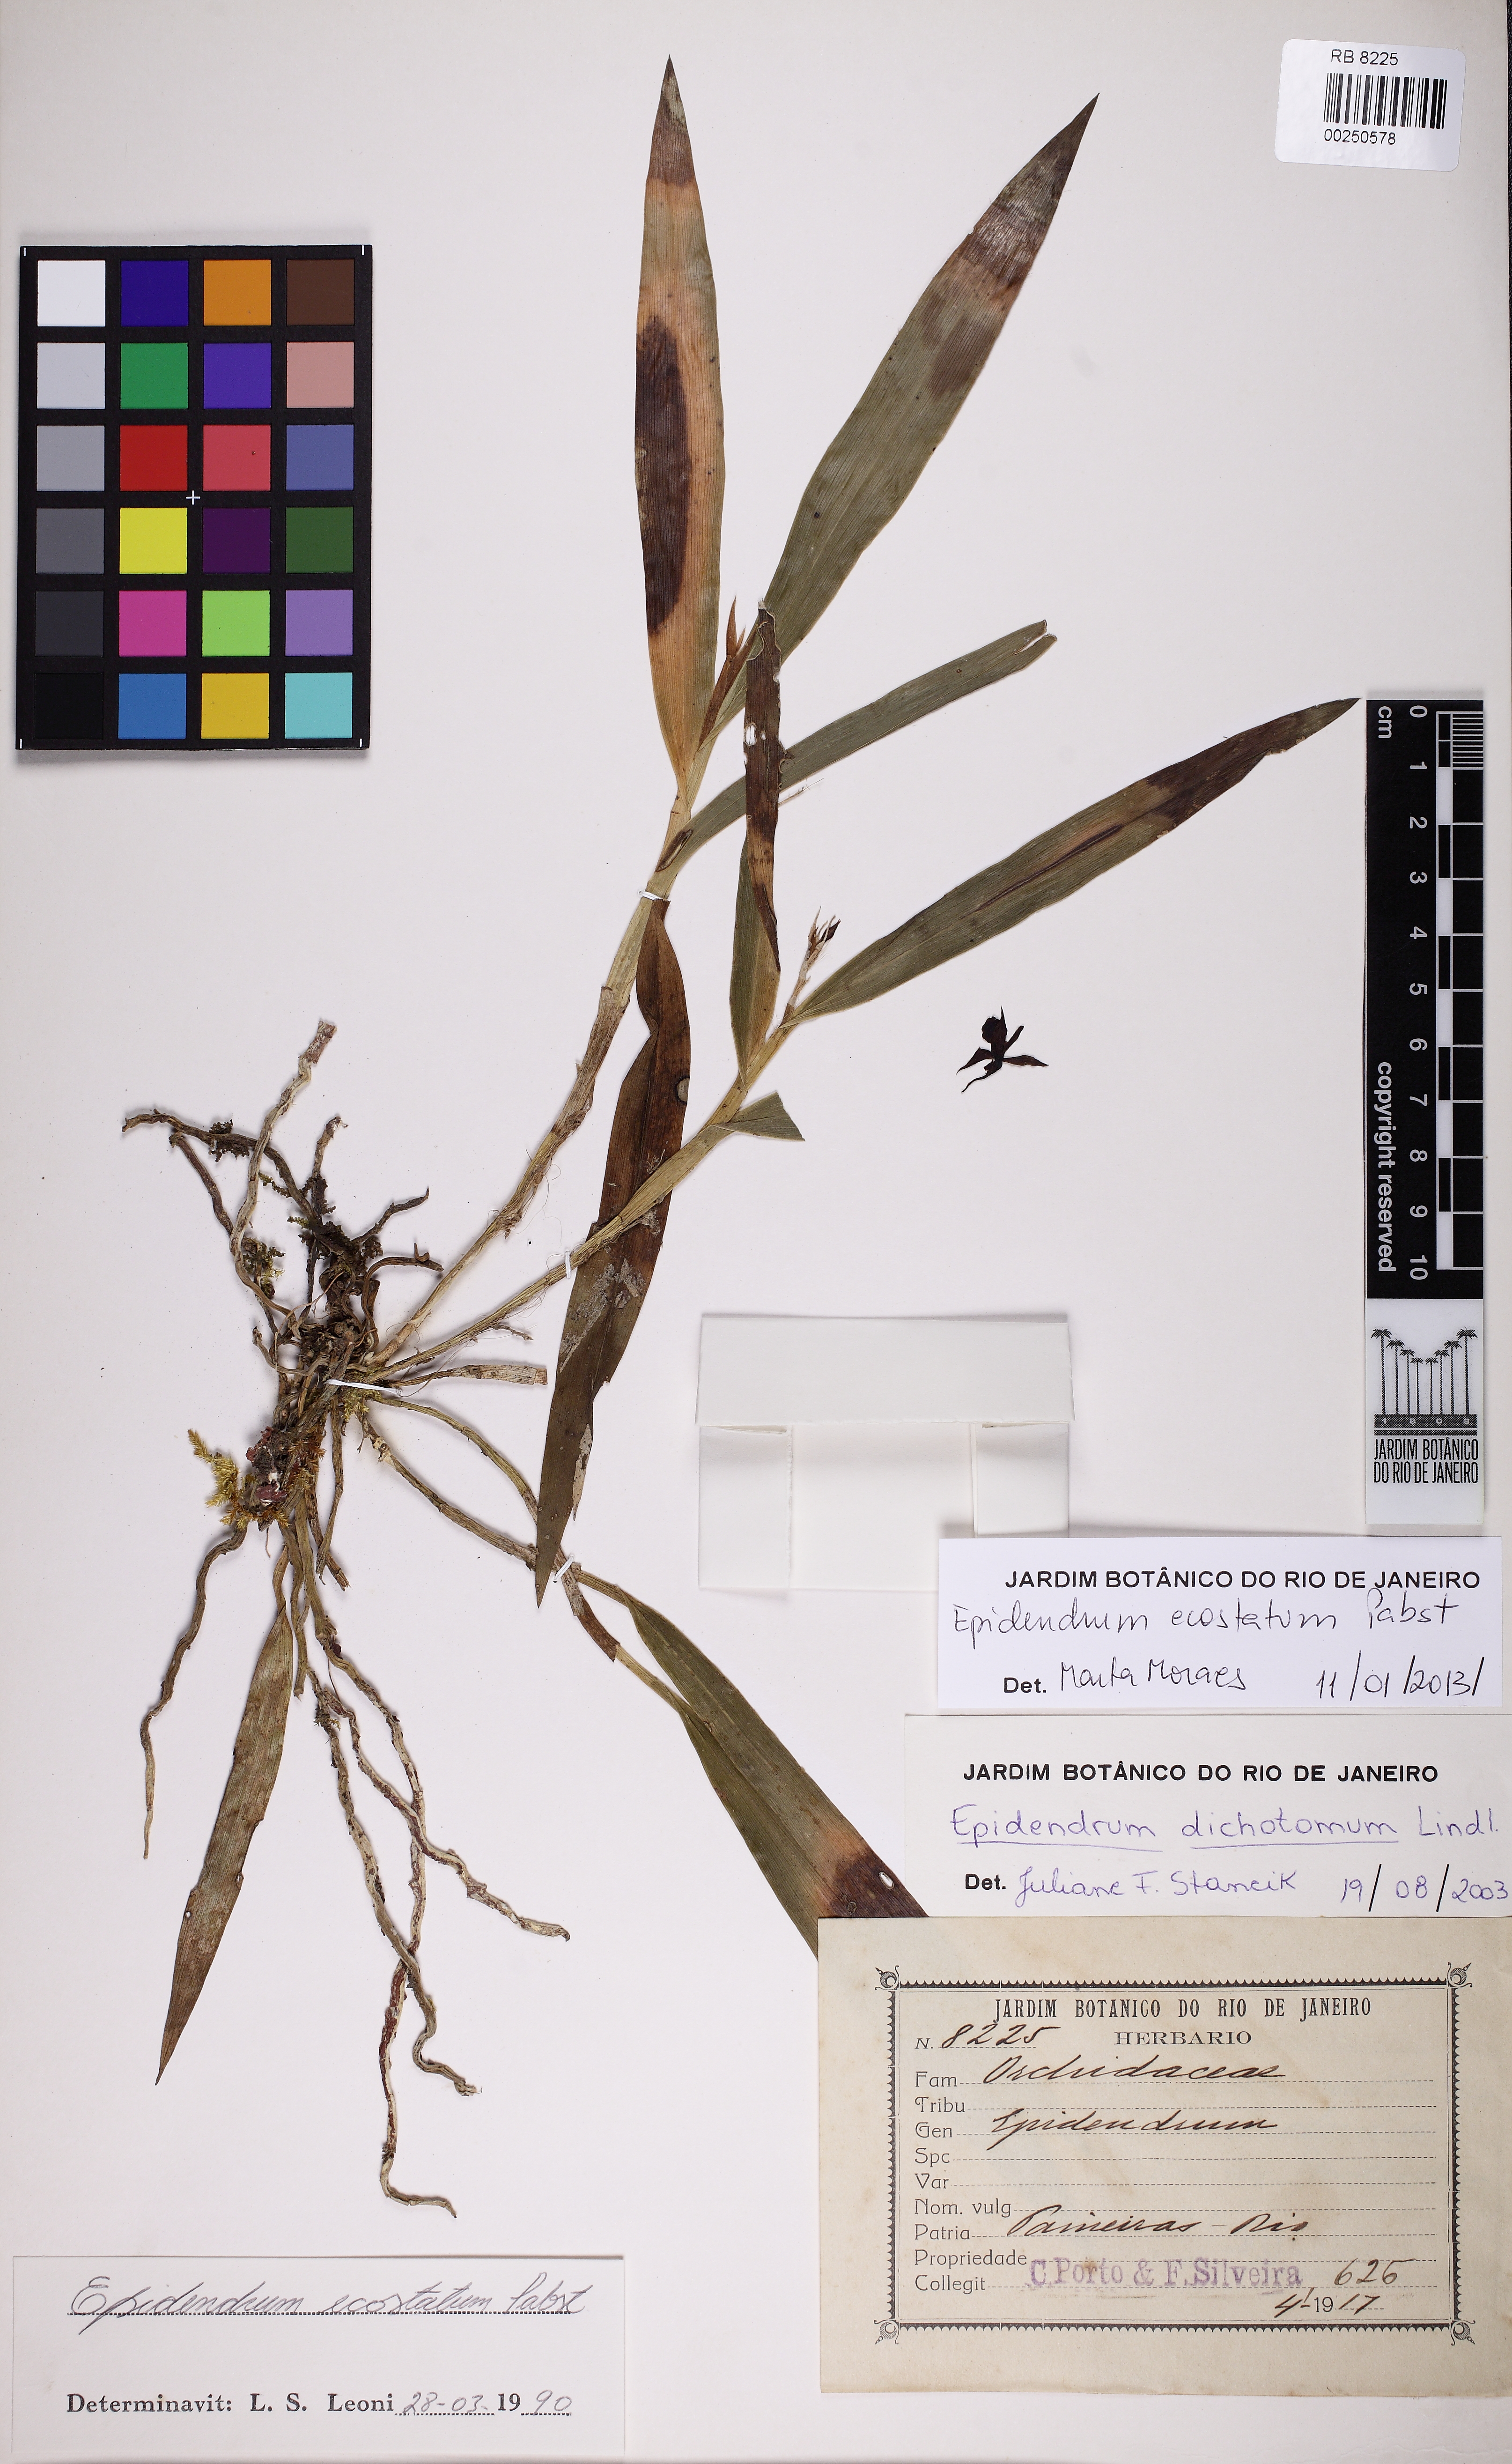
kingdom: Plantae
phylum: Tracheophyta
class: Liliopsida
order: Asparagales
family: Orchidaceae
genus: Epidendrum
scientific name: Epidendrum parahybunense
